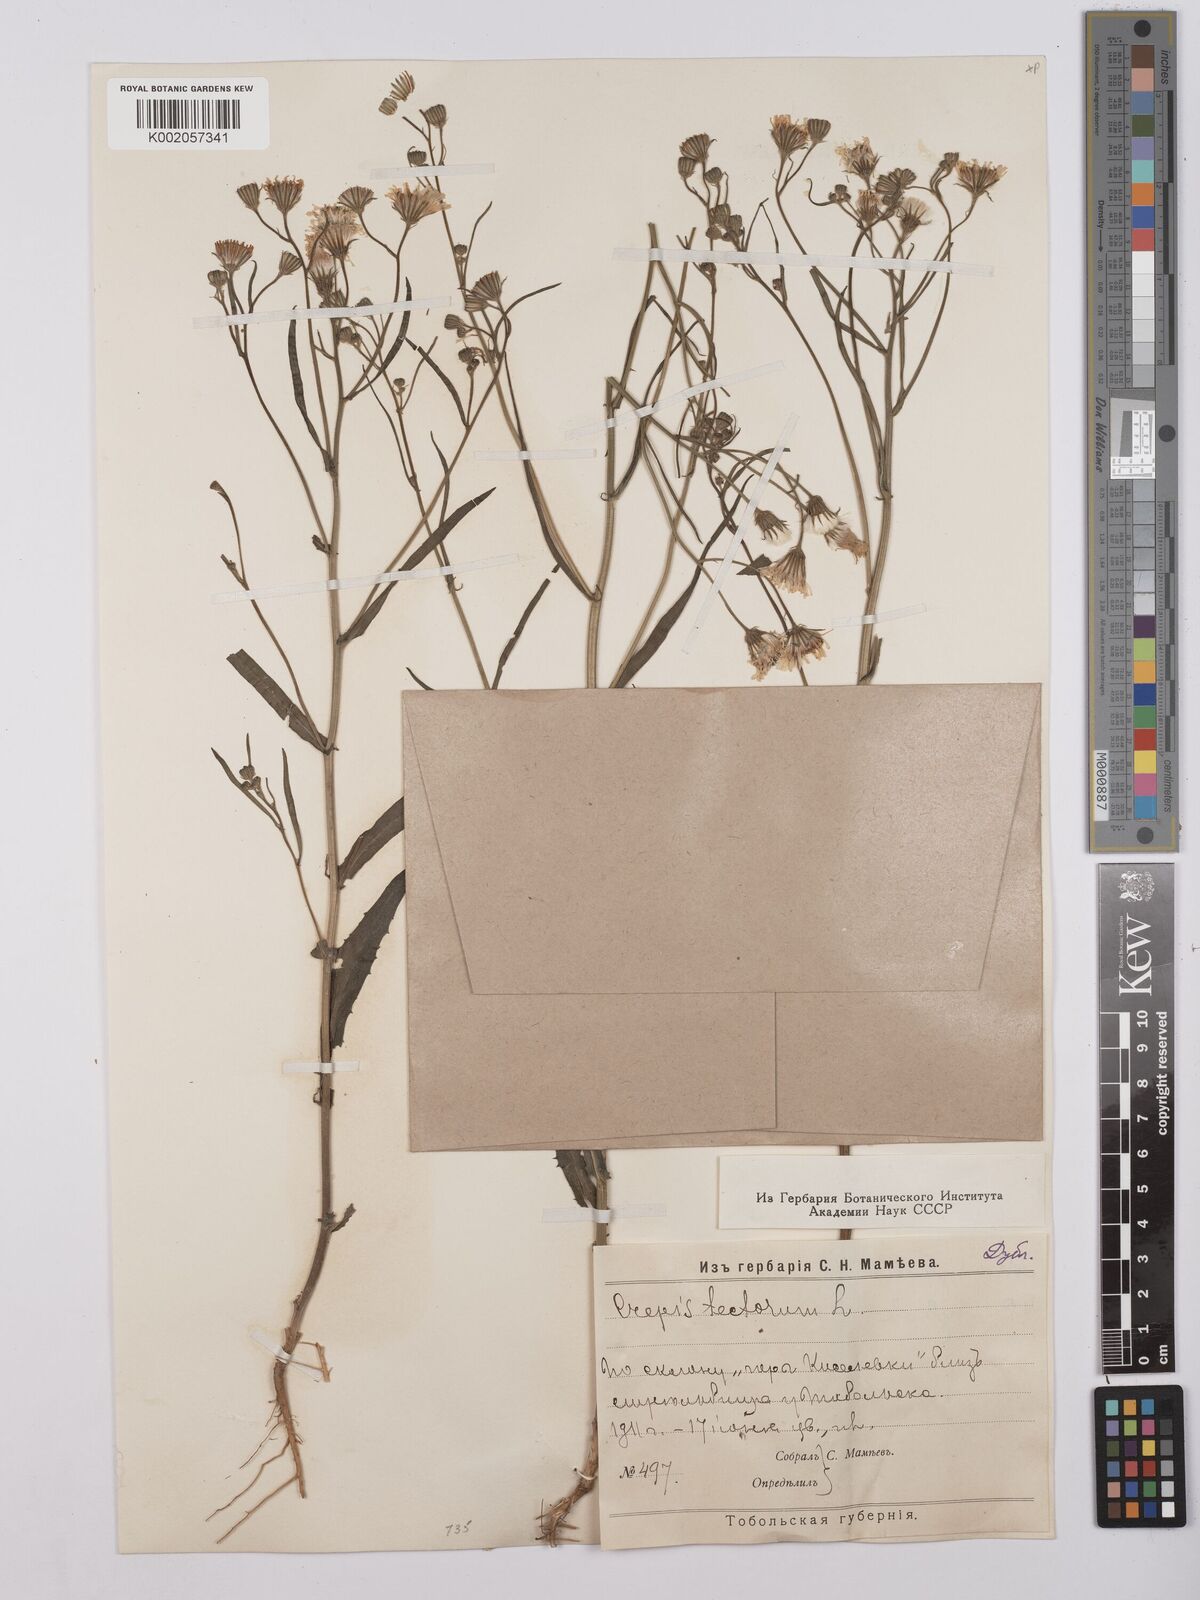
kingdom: Plantae
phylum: Tracheophyta
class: Magnoliopsida
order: Asterales
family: Asteraceae
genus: Crepis
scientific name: Crepis tectorum
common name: Narrow-leaved hawk's-beard
